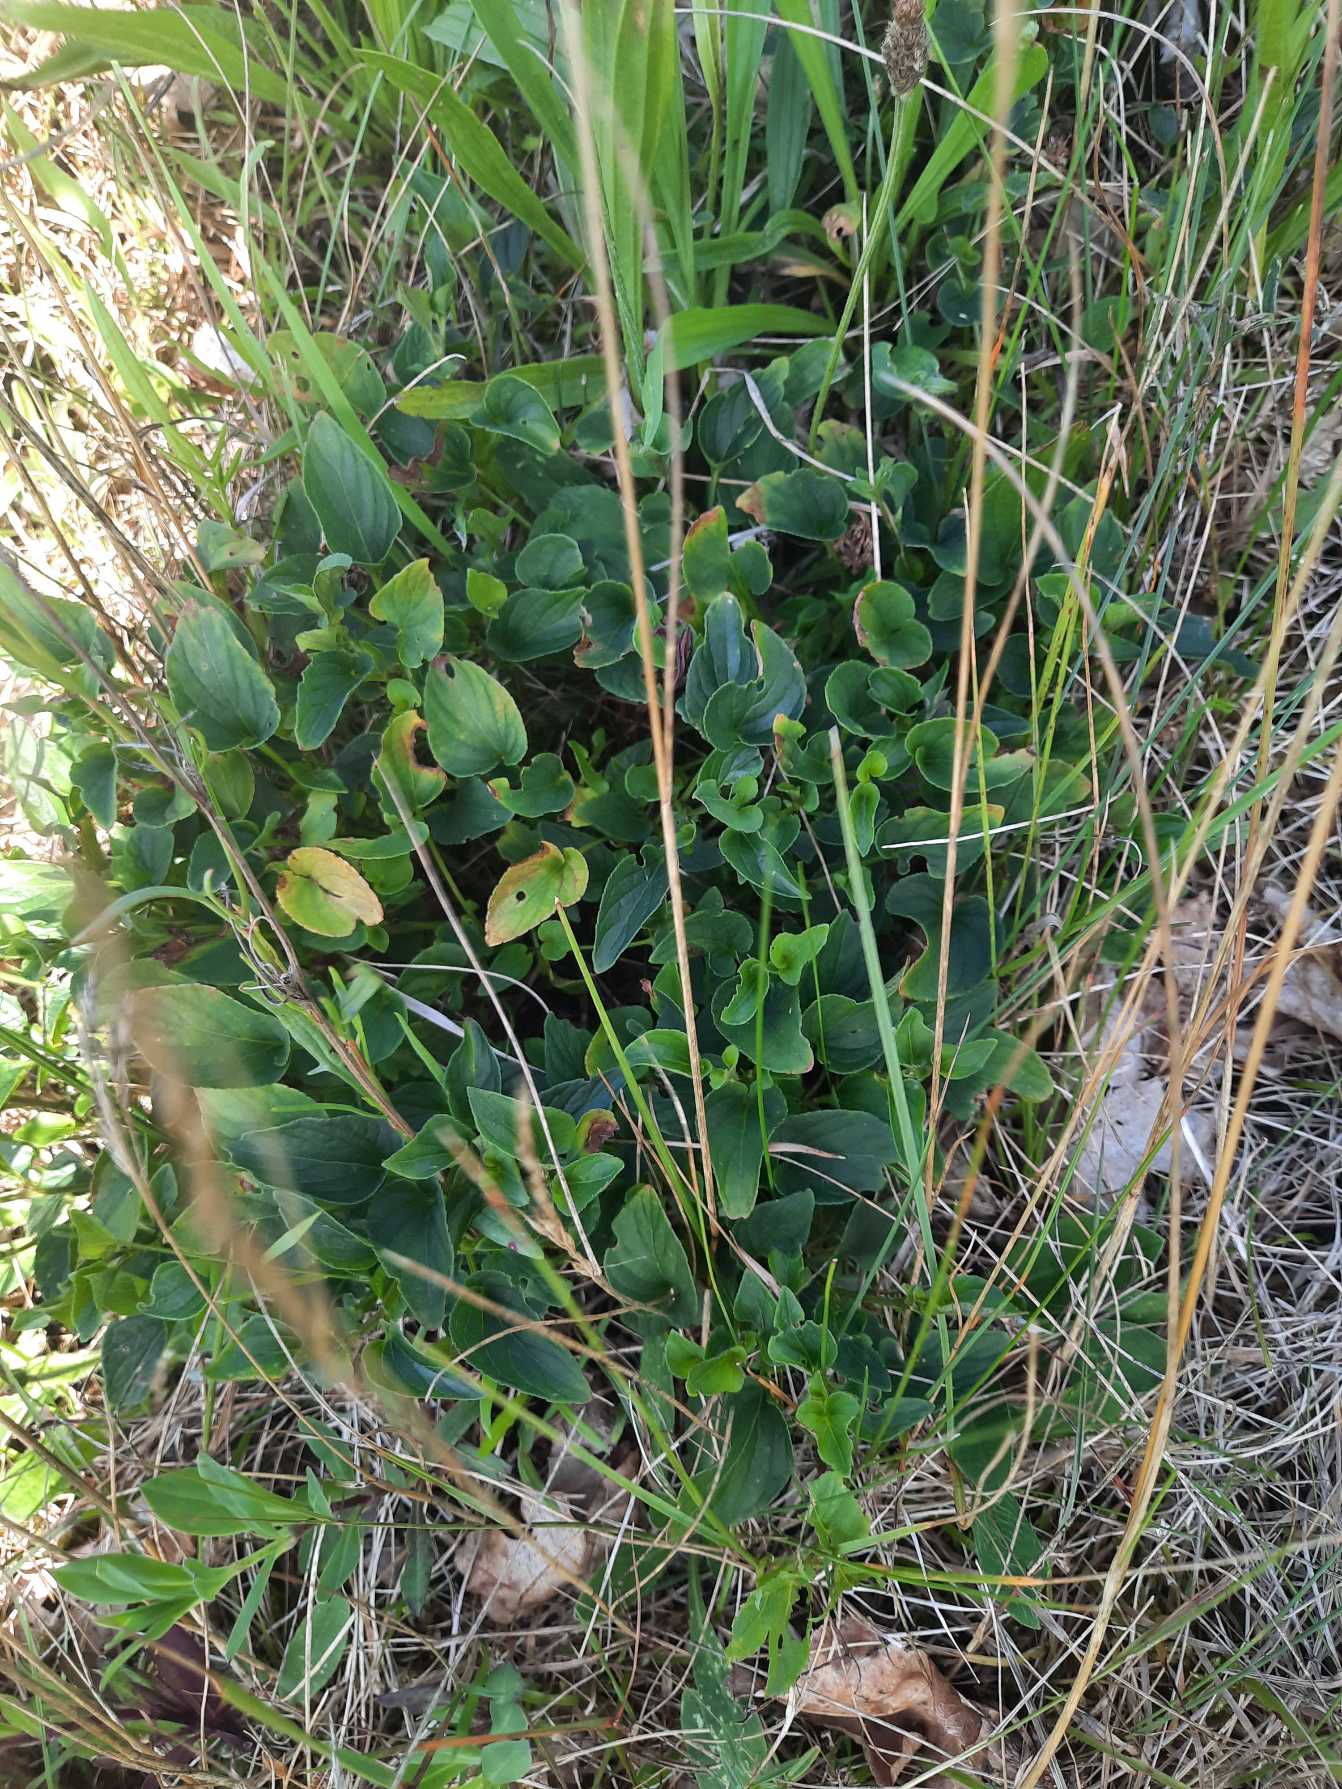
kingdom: Plantae
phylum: Tracheophyta
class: Magnoliopsida
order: Malpighiales
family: Violaceae
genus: Viola
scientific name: Viola canina
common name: Hunde-viol
